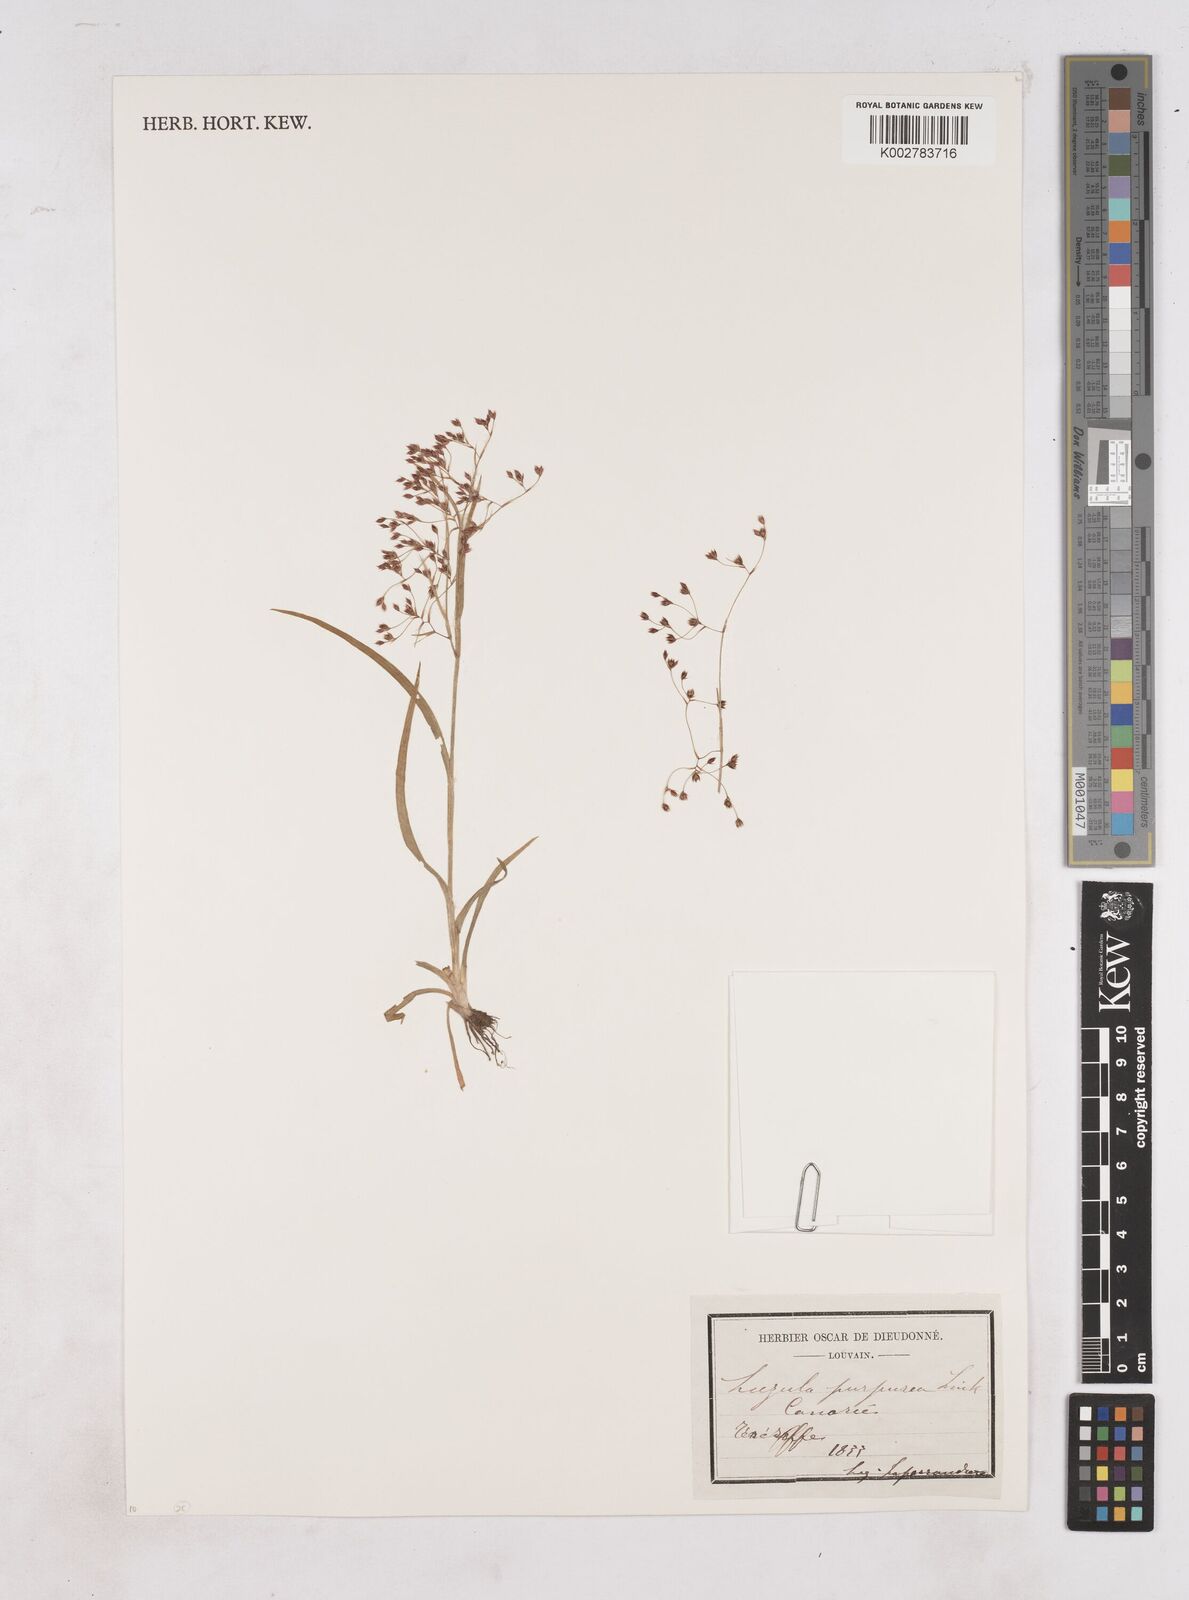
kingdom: Plantae
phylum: Tracheophyta
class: Liliopsida
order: Poales
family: Juncaceae
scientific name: Juncaceae
